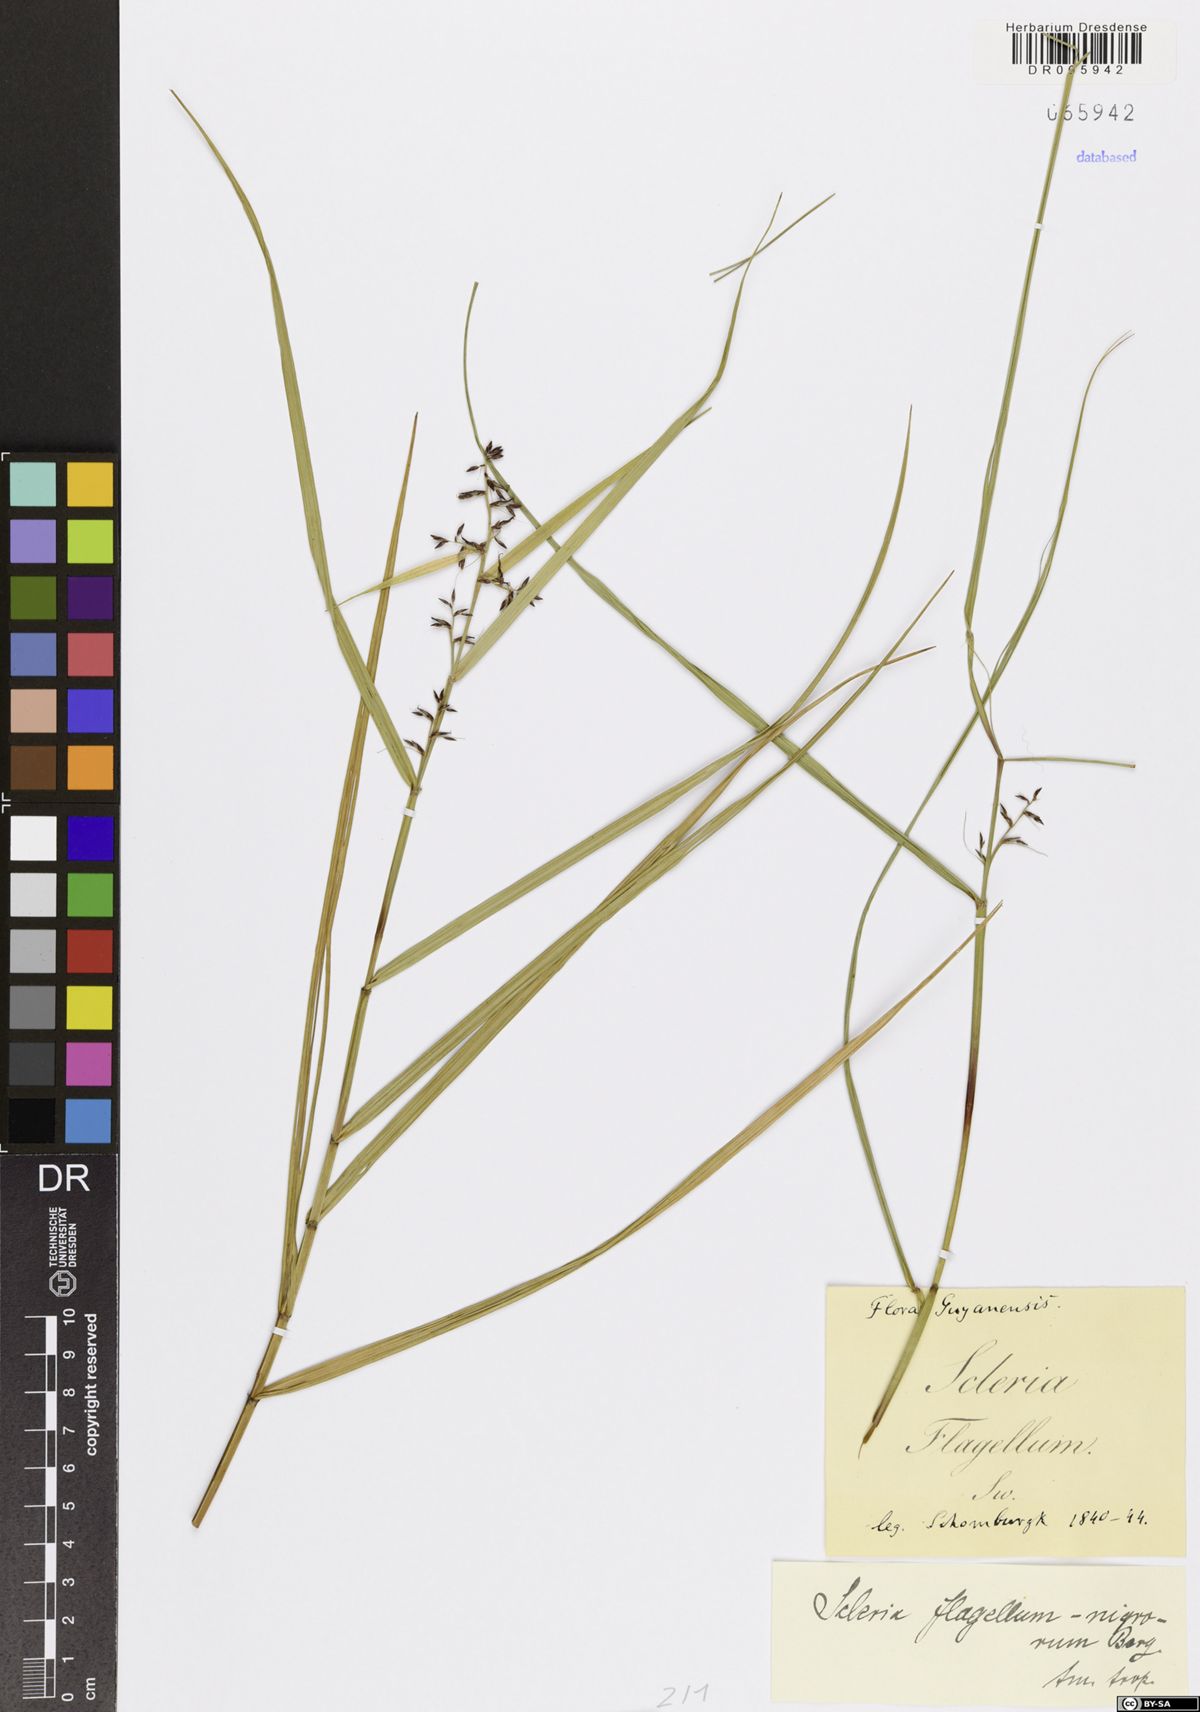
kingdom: Plantae
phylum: Tracheophyta
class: Liliopsida
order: Poales
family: Cyperaceae
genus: Scleria
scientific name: Scleria flagellum-nigrorum
